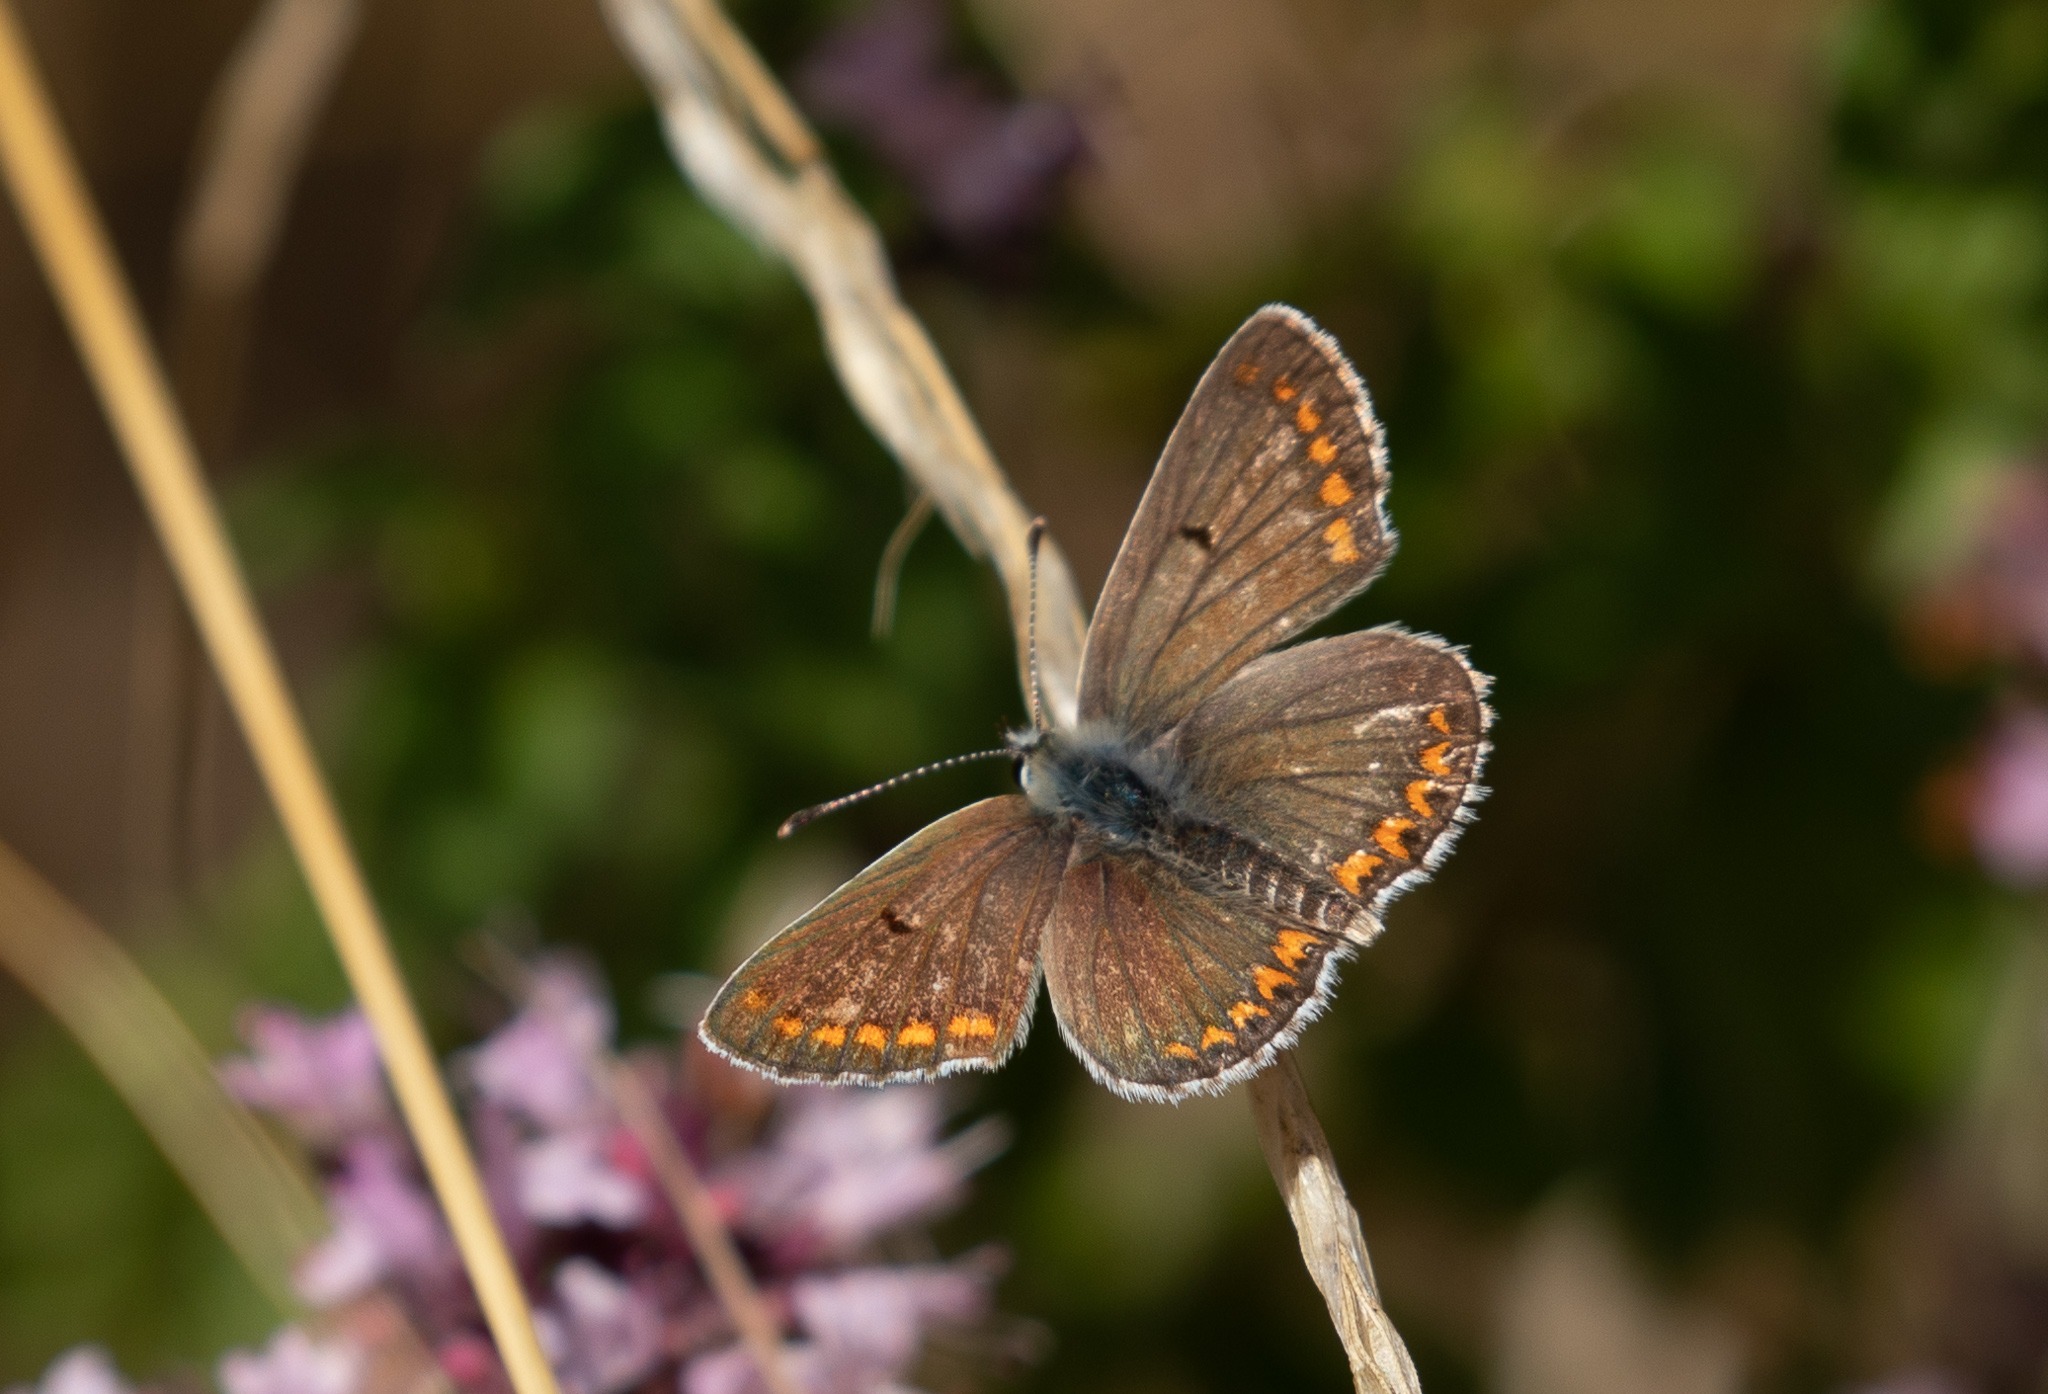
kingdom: Animalia
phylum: Arthropoda
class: Insecta
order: Lepidoptera
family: Lycaenidae
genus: Aricia
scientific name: Aricia agestis
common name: Rødplettet blåfugl
